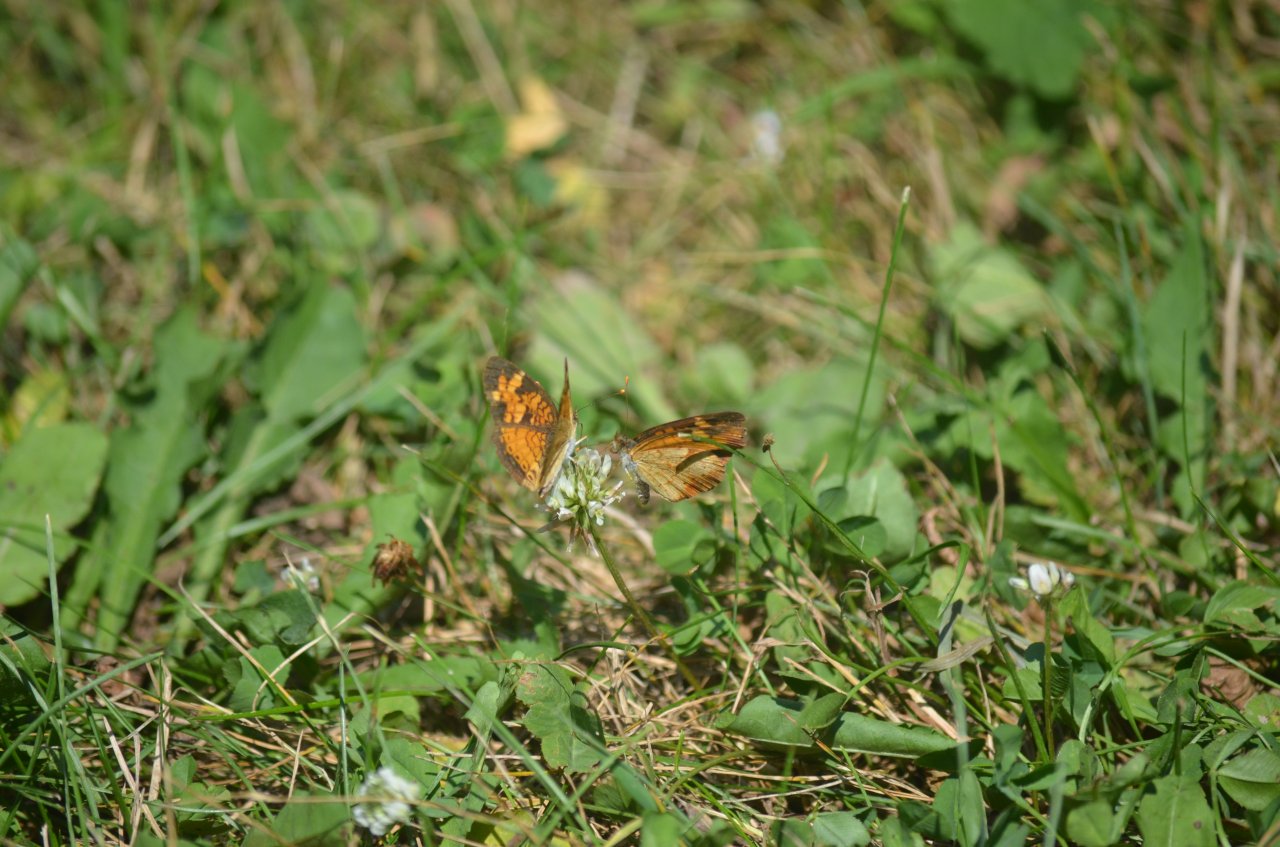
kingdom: Animalia
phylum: Arthropoda
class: Insecta
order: Lepidoptera
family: Nymphalidae
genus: Phyciodes
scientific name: Phyciodes tharos
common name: Northern Crescent
